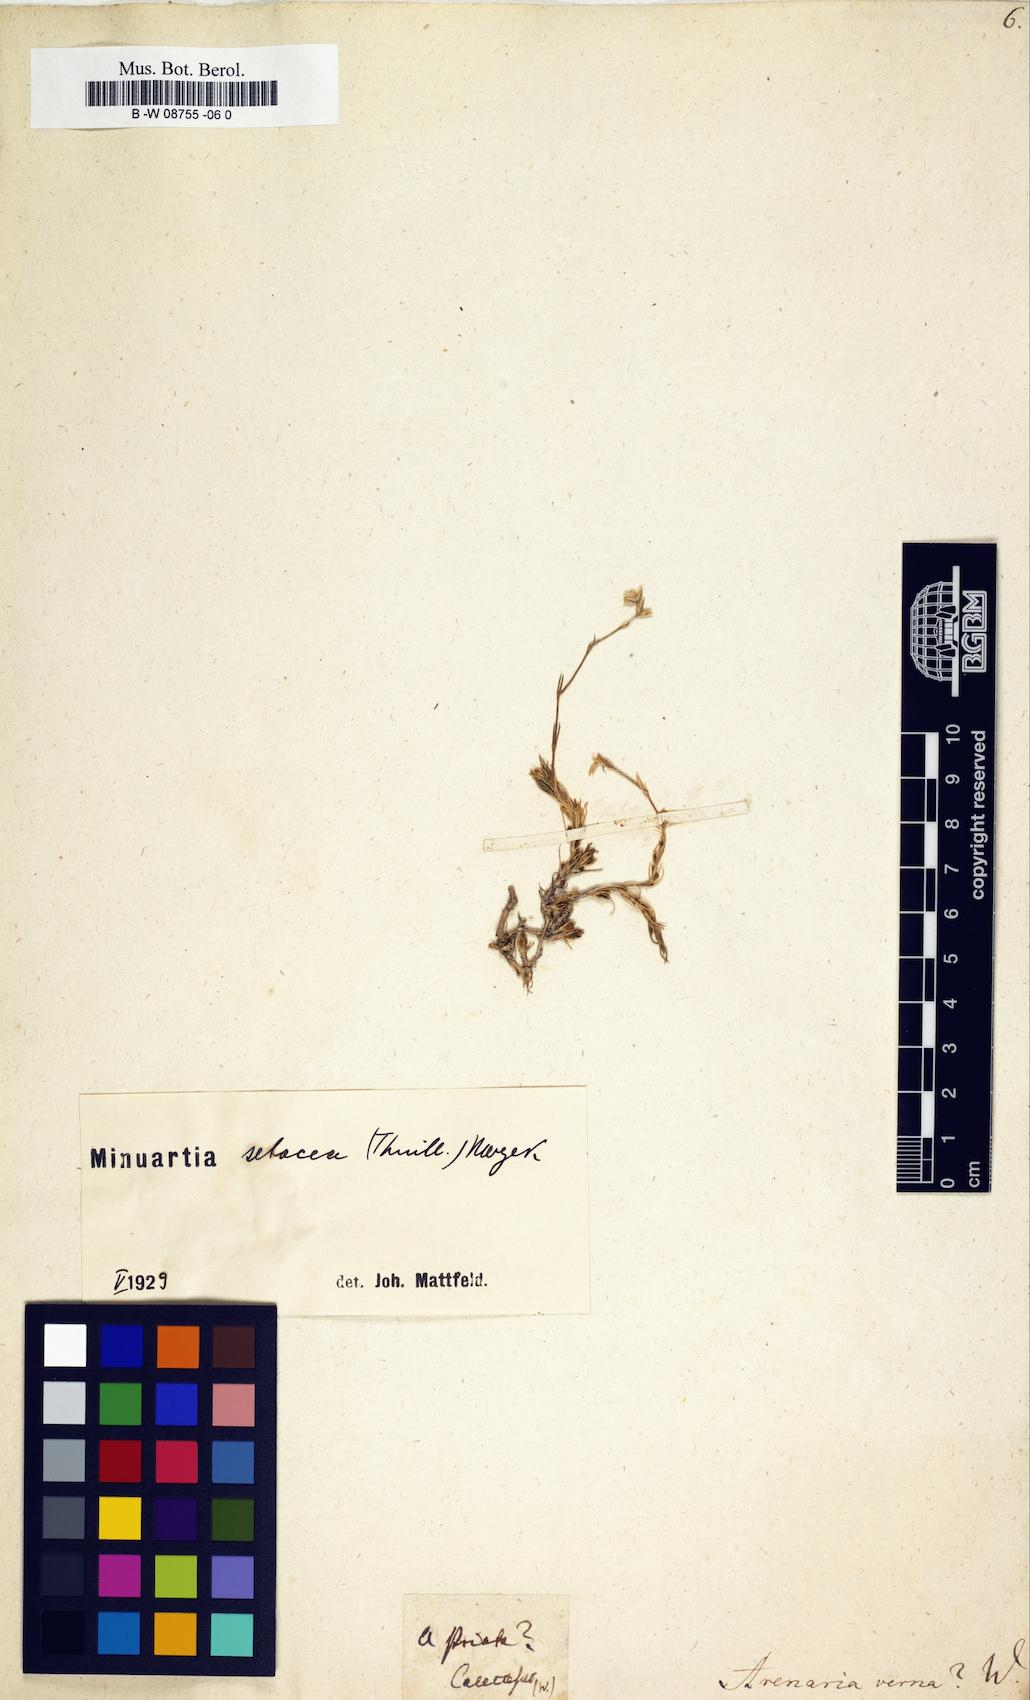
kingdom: Plantae
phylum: Tracheophyta
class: Magnoliopsida
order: Caryophyllales
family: Caryophyllaceae
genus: Sabulina
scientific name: Sabulina verna
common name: Spring sandwort
